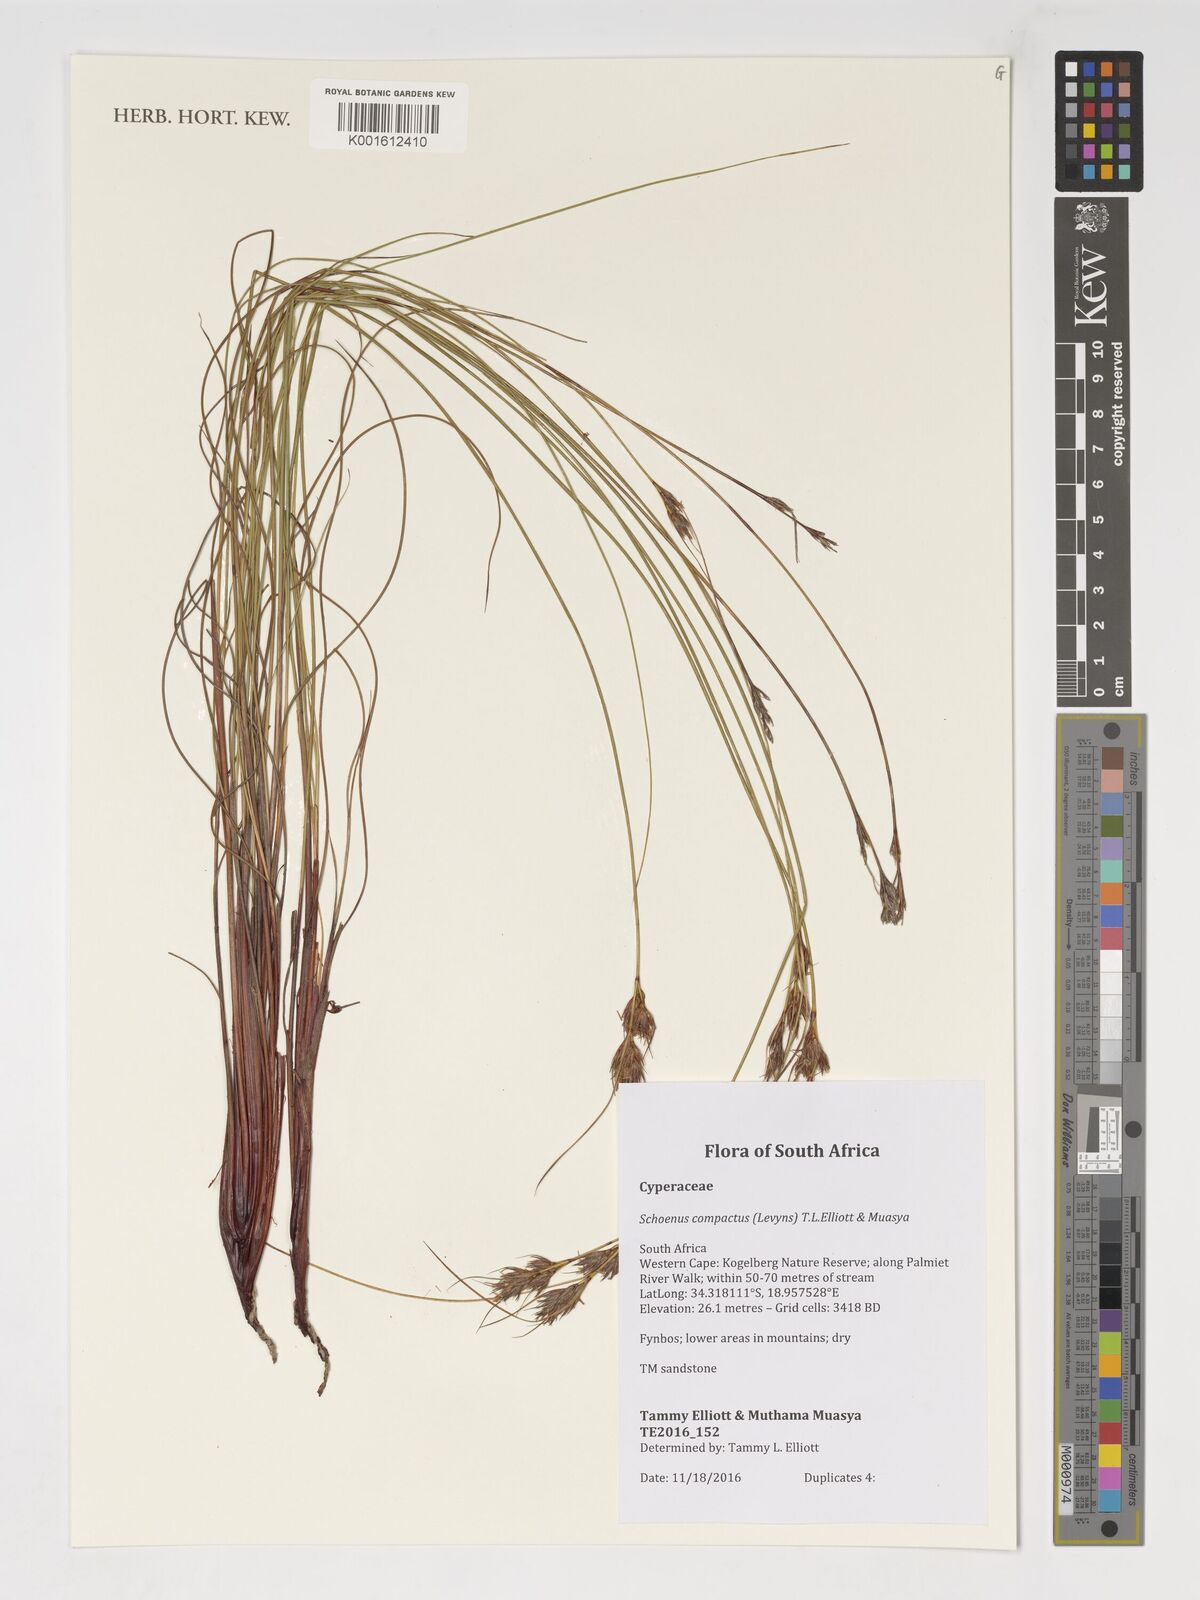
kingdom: Plantae
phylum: Tracheophyta
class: Liliopsida
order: Poales
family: Cyperaceae
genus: Schoenus
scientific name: Schoenus compactus
